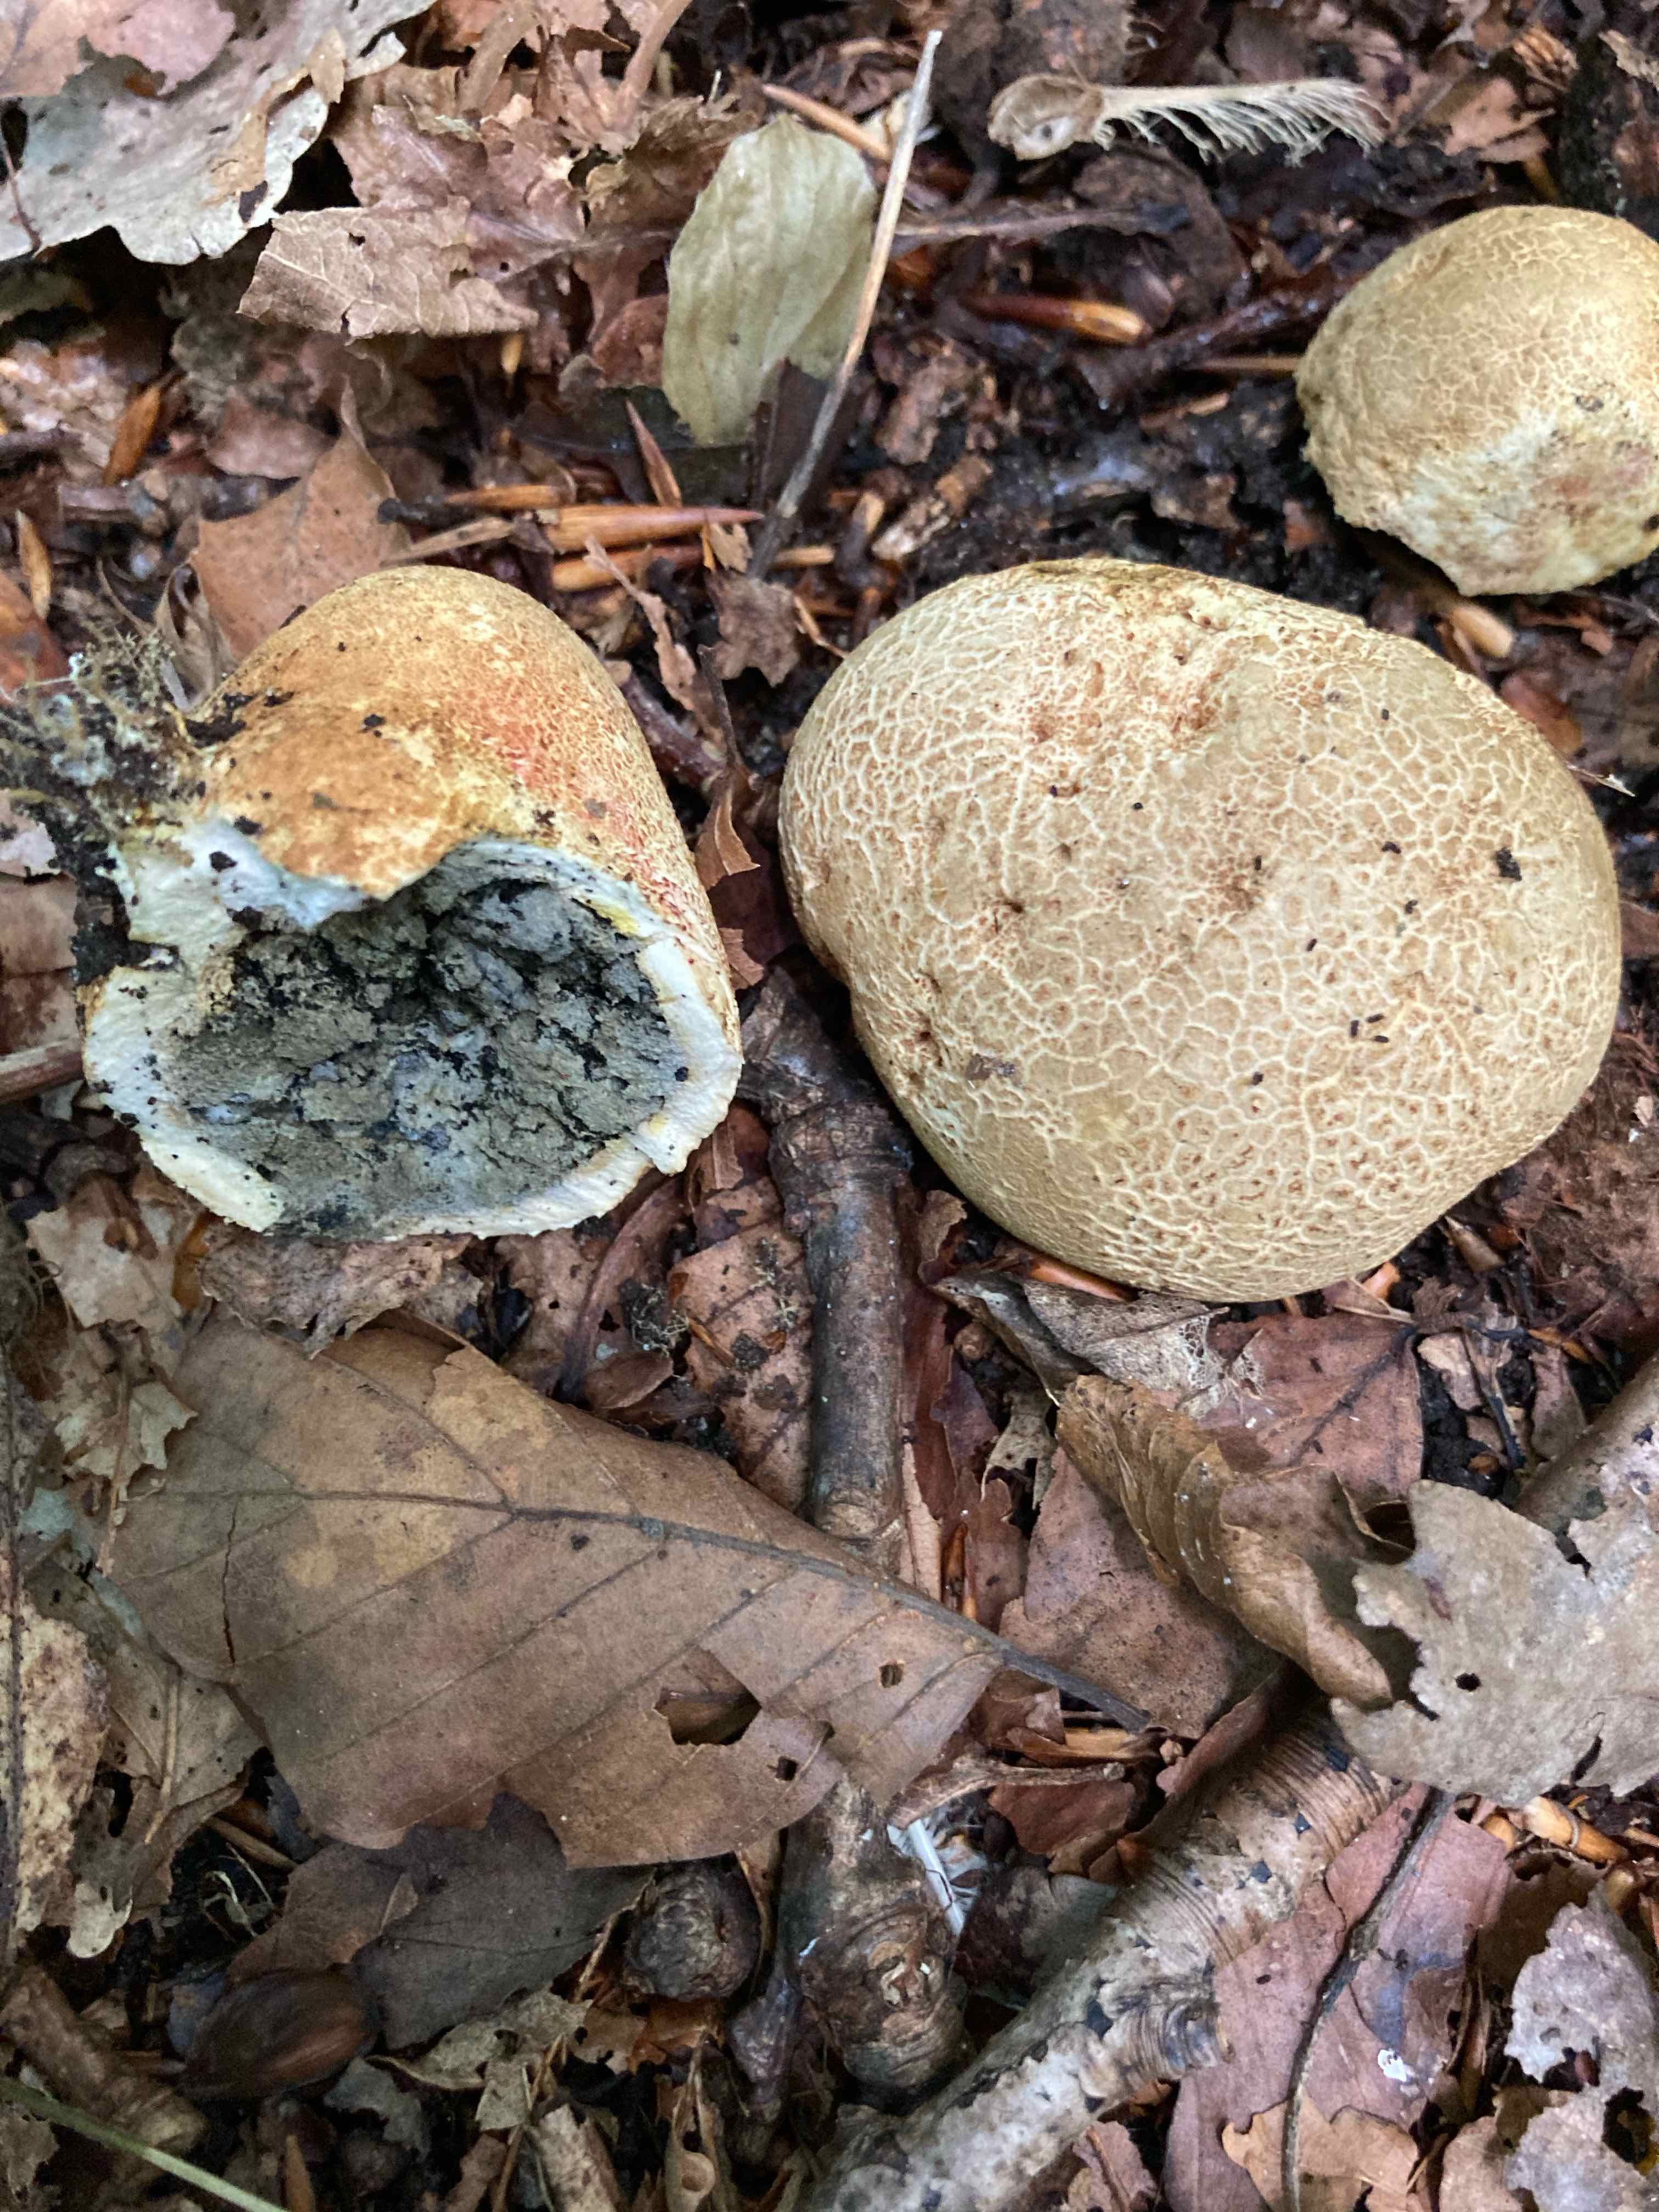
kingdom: Fungi
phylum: Basidiomycota
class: Agaricomycetes
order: Boletales
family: Sclerodermataceae
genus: Scleroderma
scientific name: Scleroderma citrinum
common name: almindelig bruskbold
